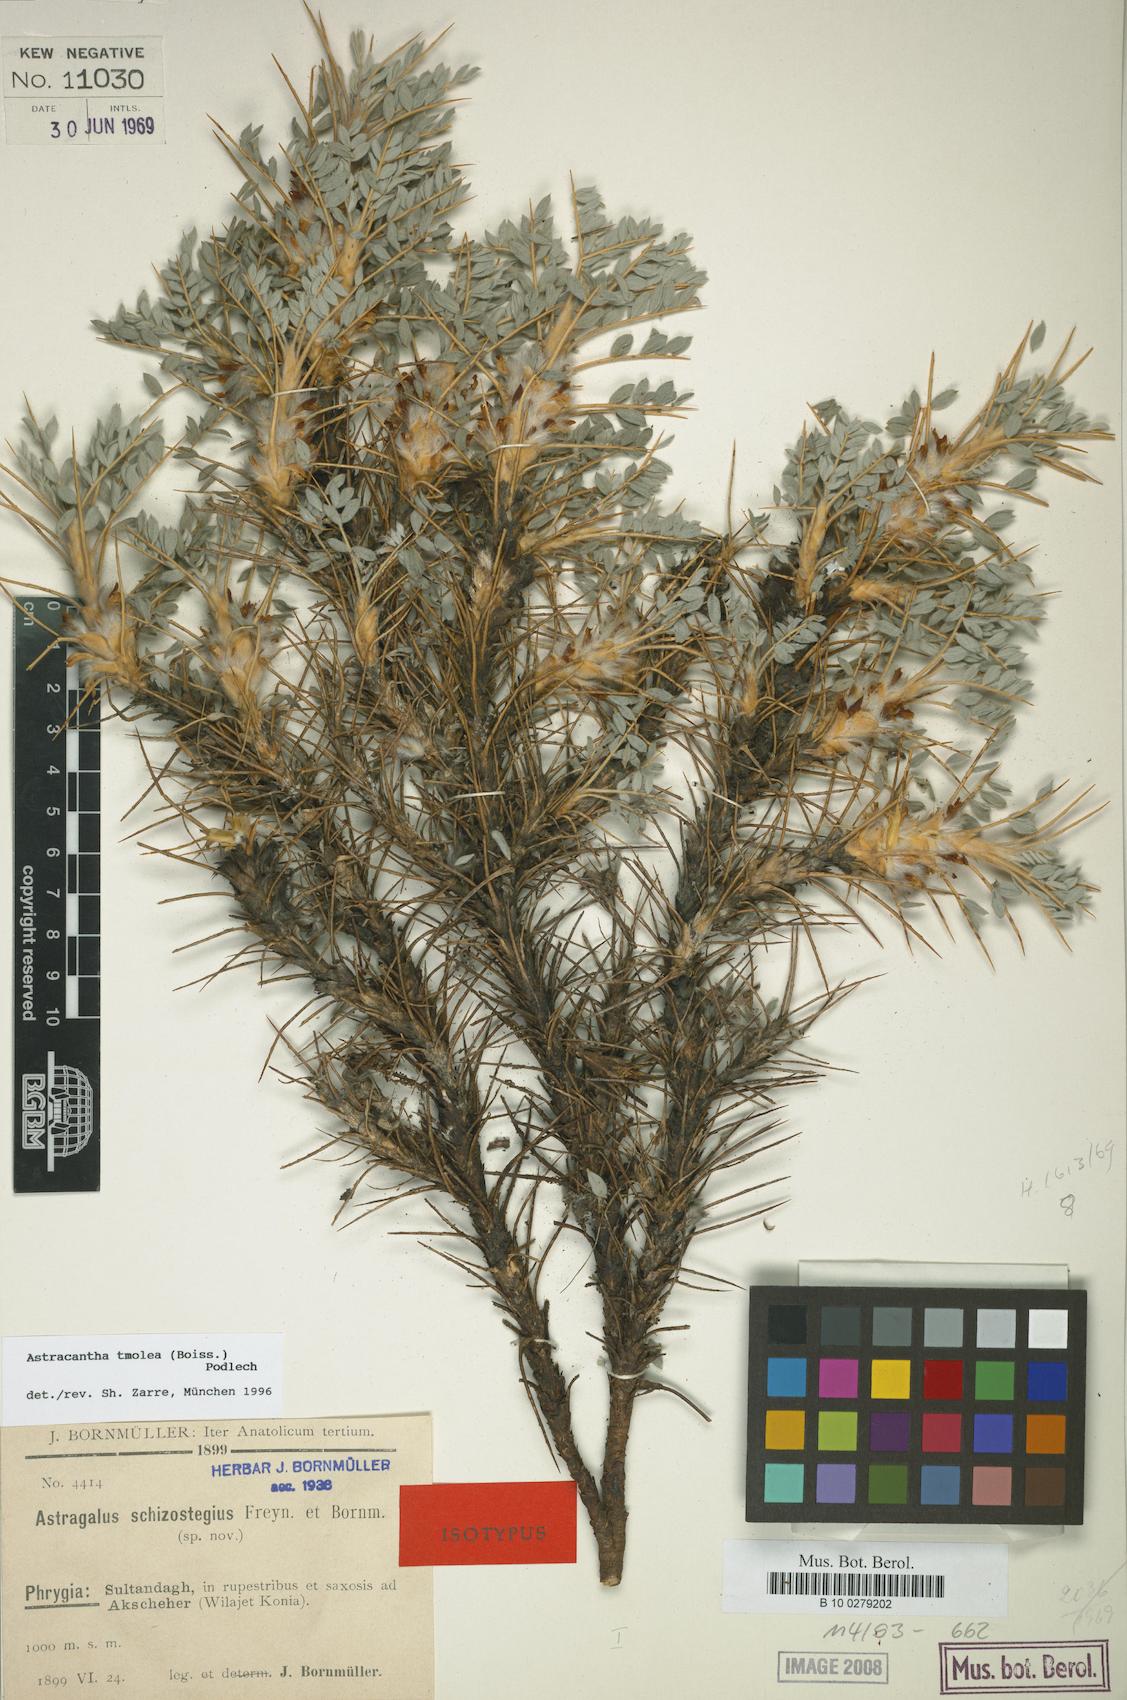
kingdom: Plantae
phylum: Tracheophyta
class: Magnoliopsida
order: Fabales
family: Fabaceae
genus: Astragalus
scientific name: Astragalus tmoleus
